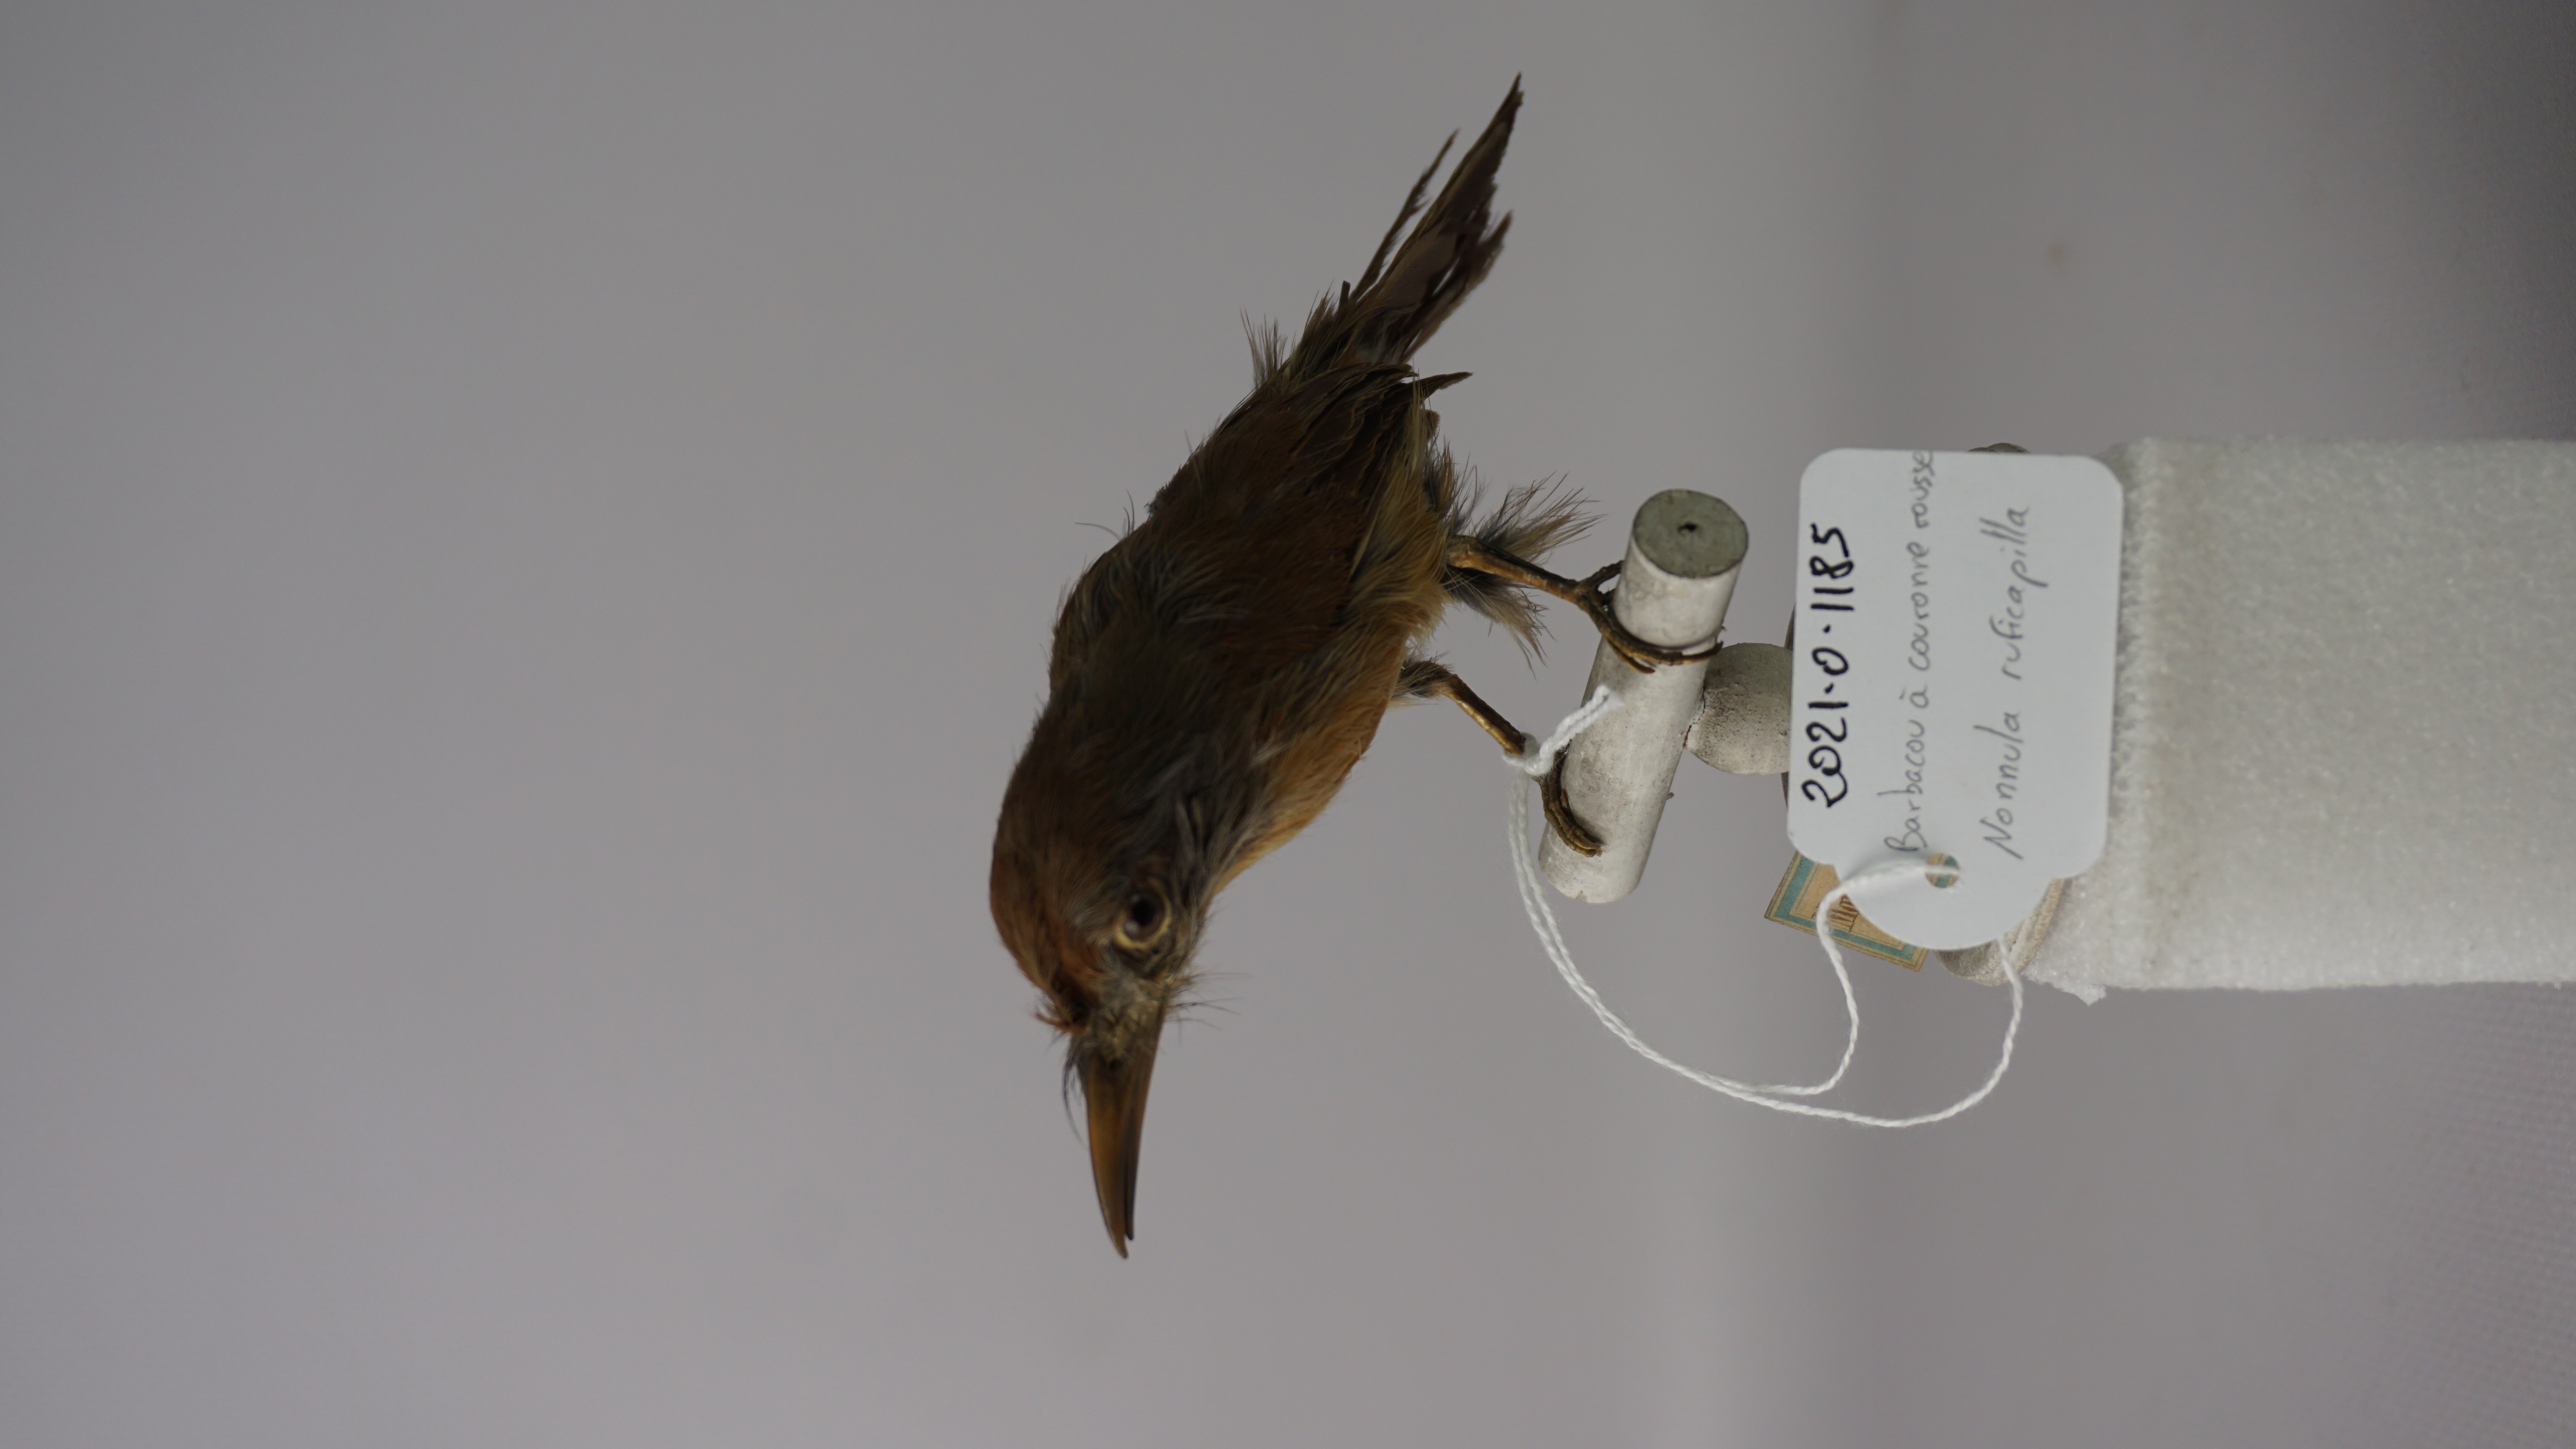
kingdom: Animalia
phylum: Chordata
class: Aves
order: Piciformes
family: Bucconidae
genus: Nonnula
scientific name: Nonnula ruficapilla
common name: Rufous-capped nunlet
